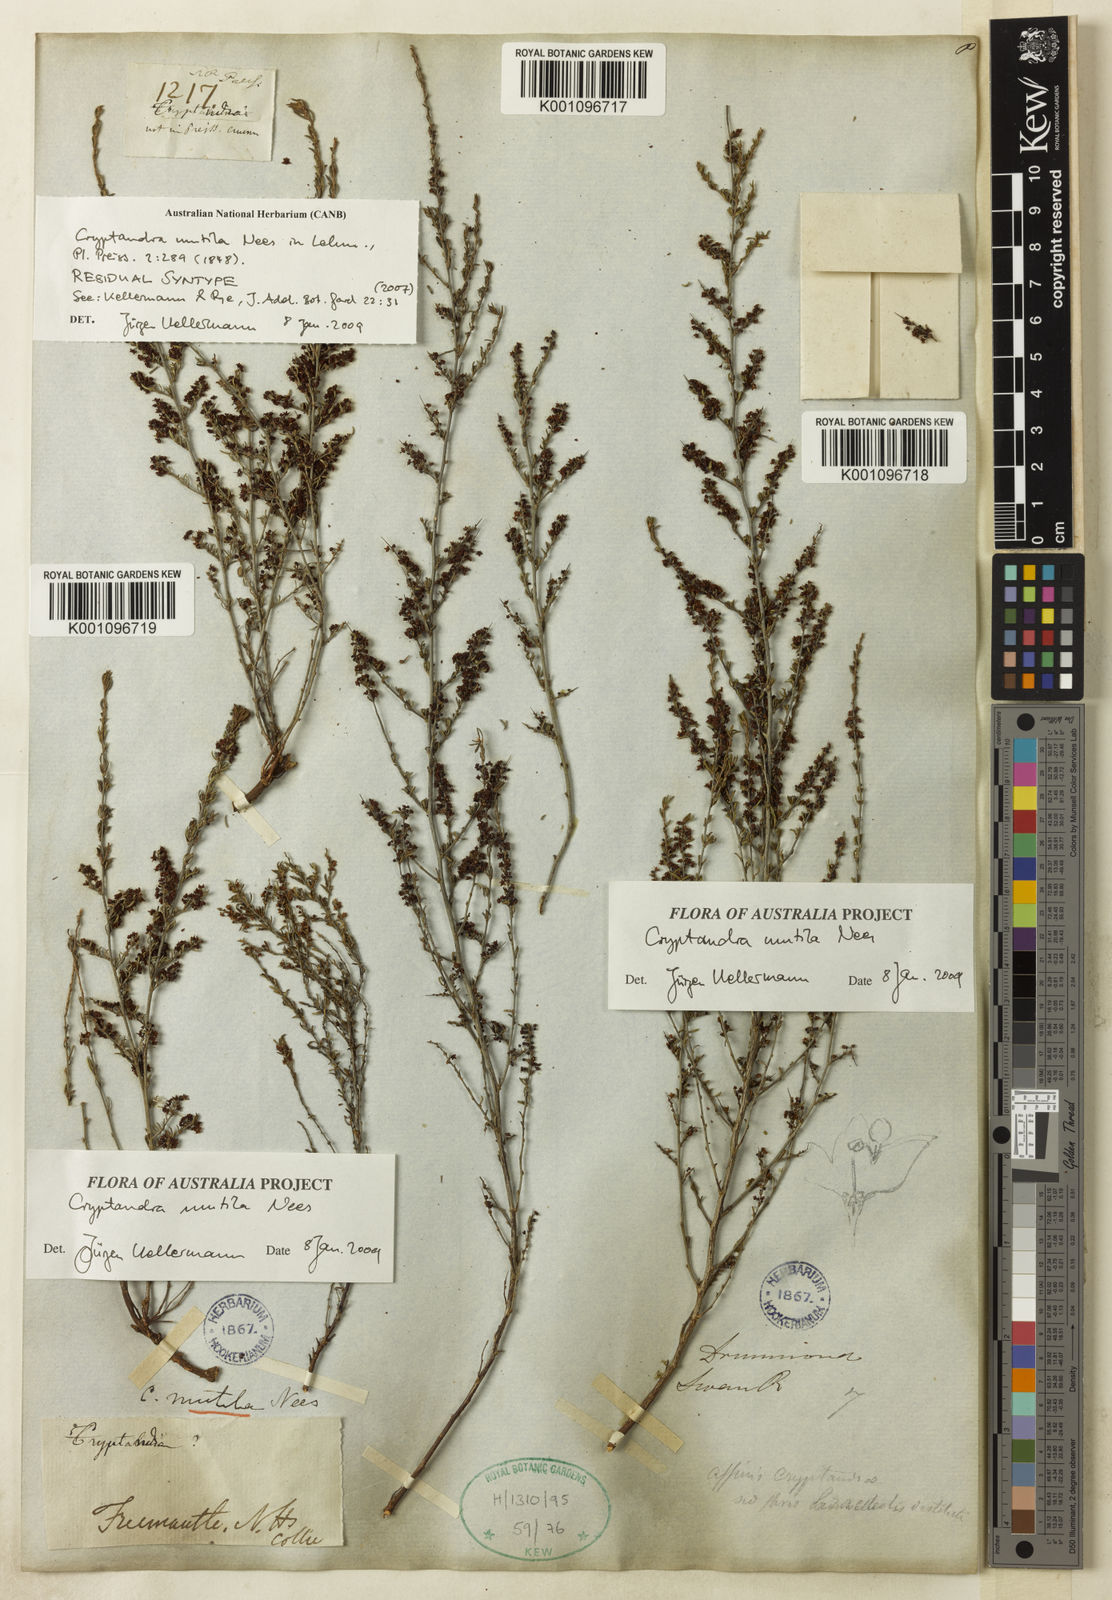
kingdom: Plantae
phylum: Tracheophyta
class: Magnoliopsida
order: Rosales
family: Rhamnaceae
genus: Cryptandra
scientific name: Cryptandra mutila
